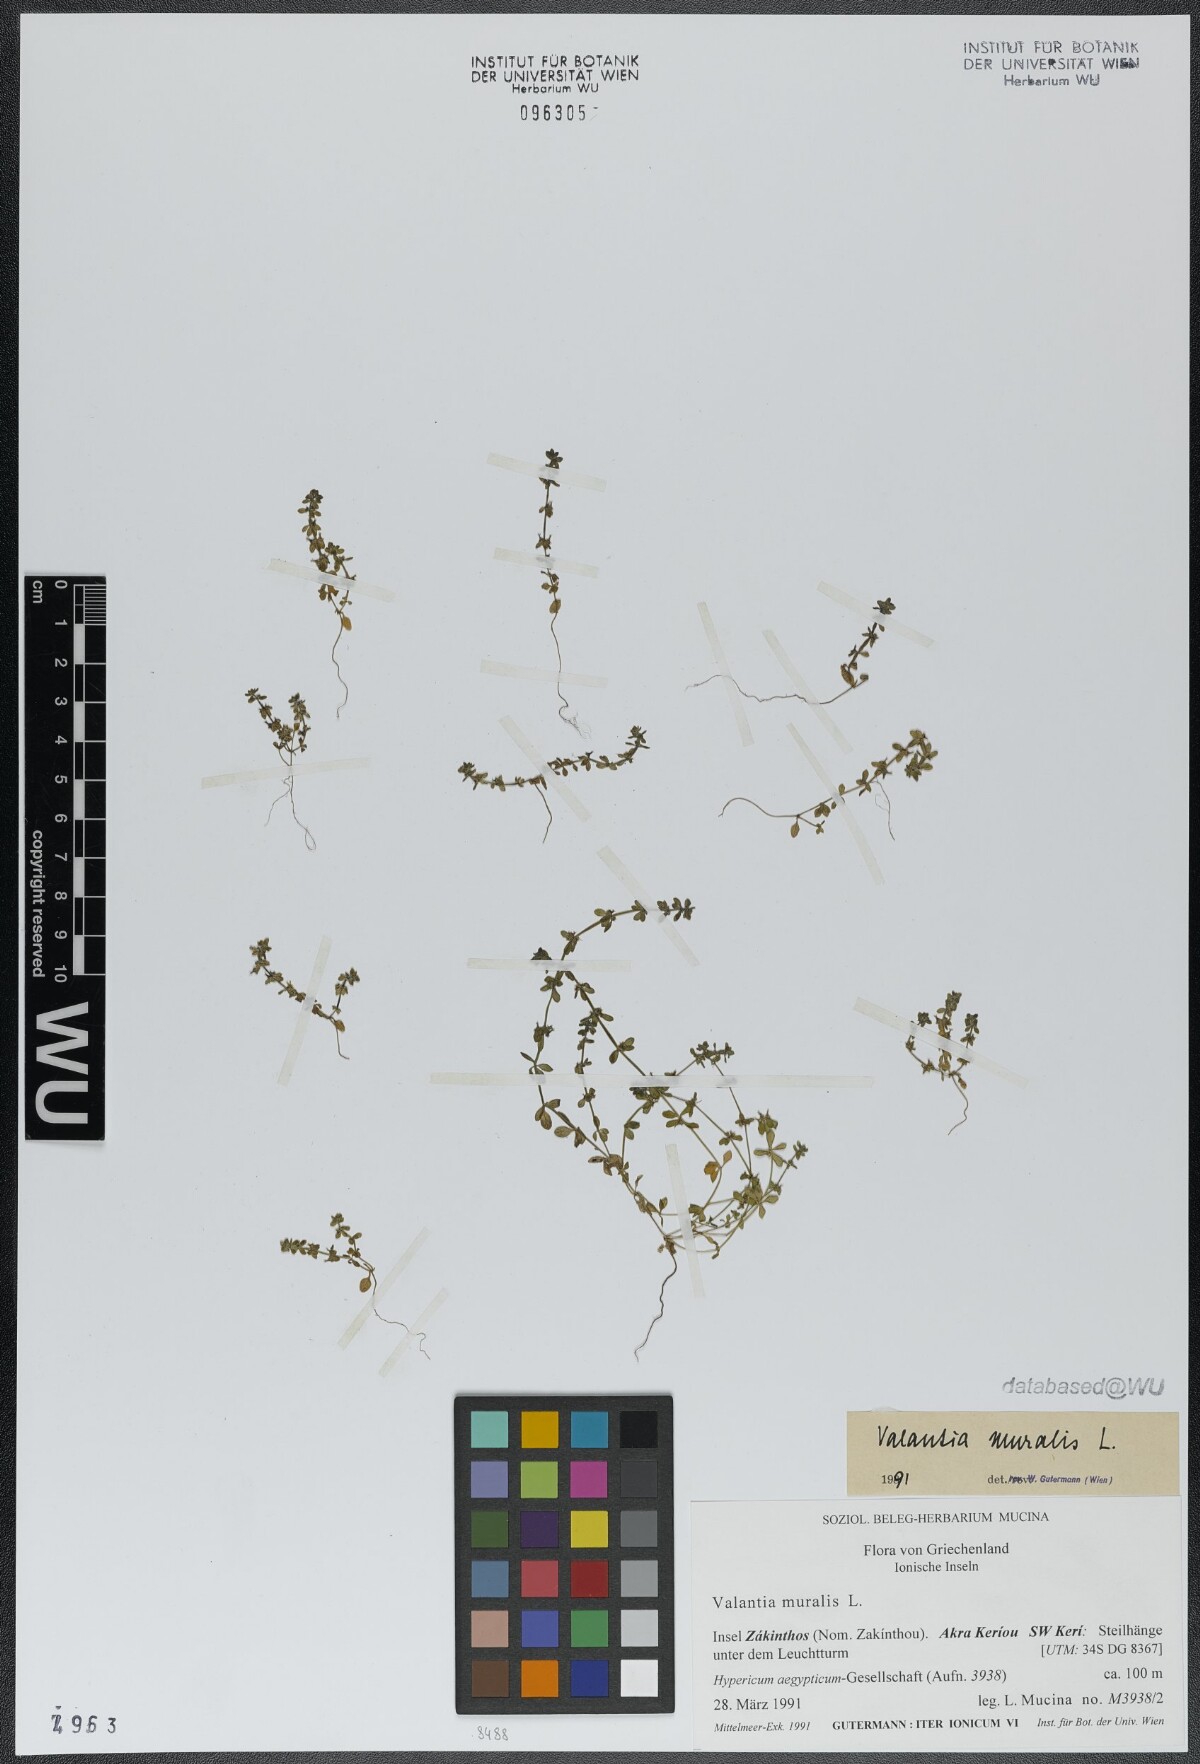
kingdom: Plantae
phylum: Tracheophyta
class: Magnoliopsida
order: Gentianales
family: Rubiaceae
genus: Valantia
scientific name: Valantia muralis
